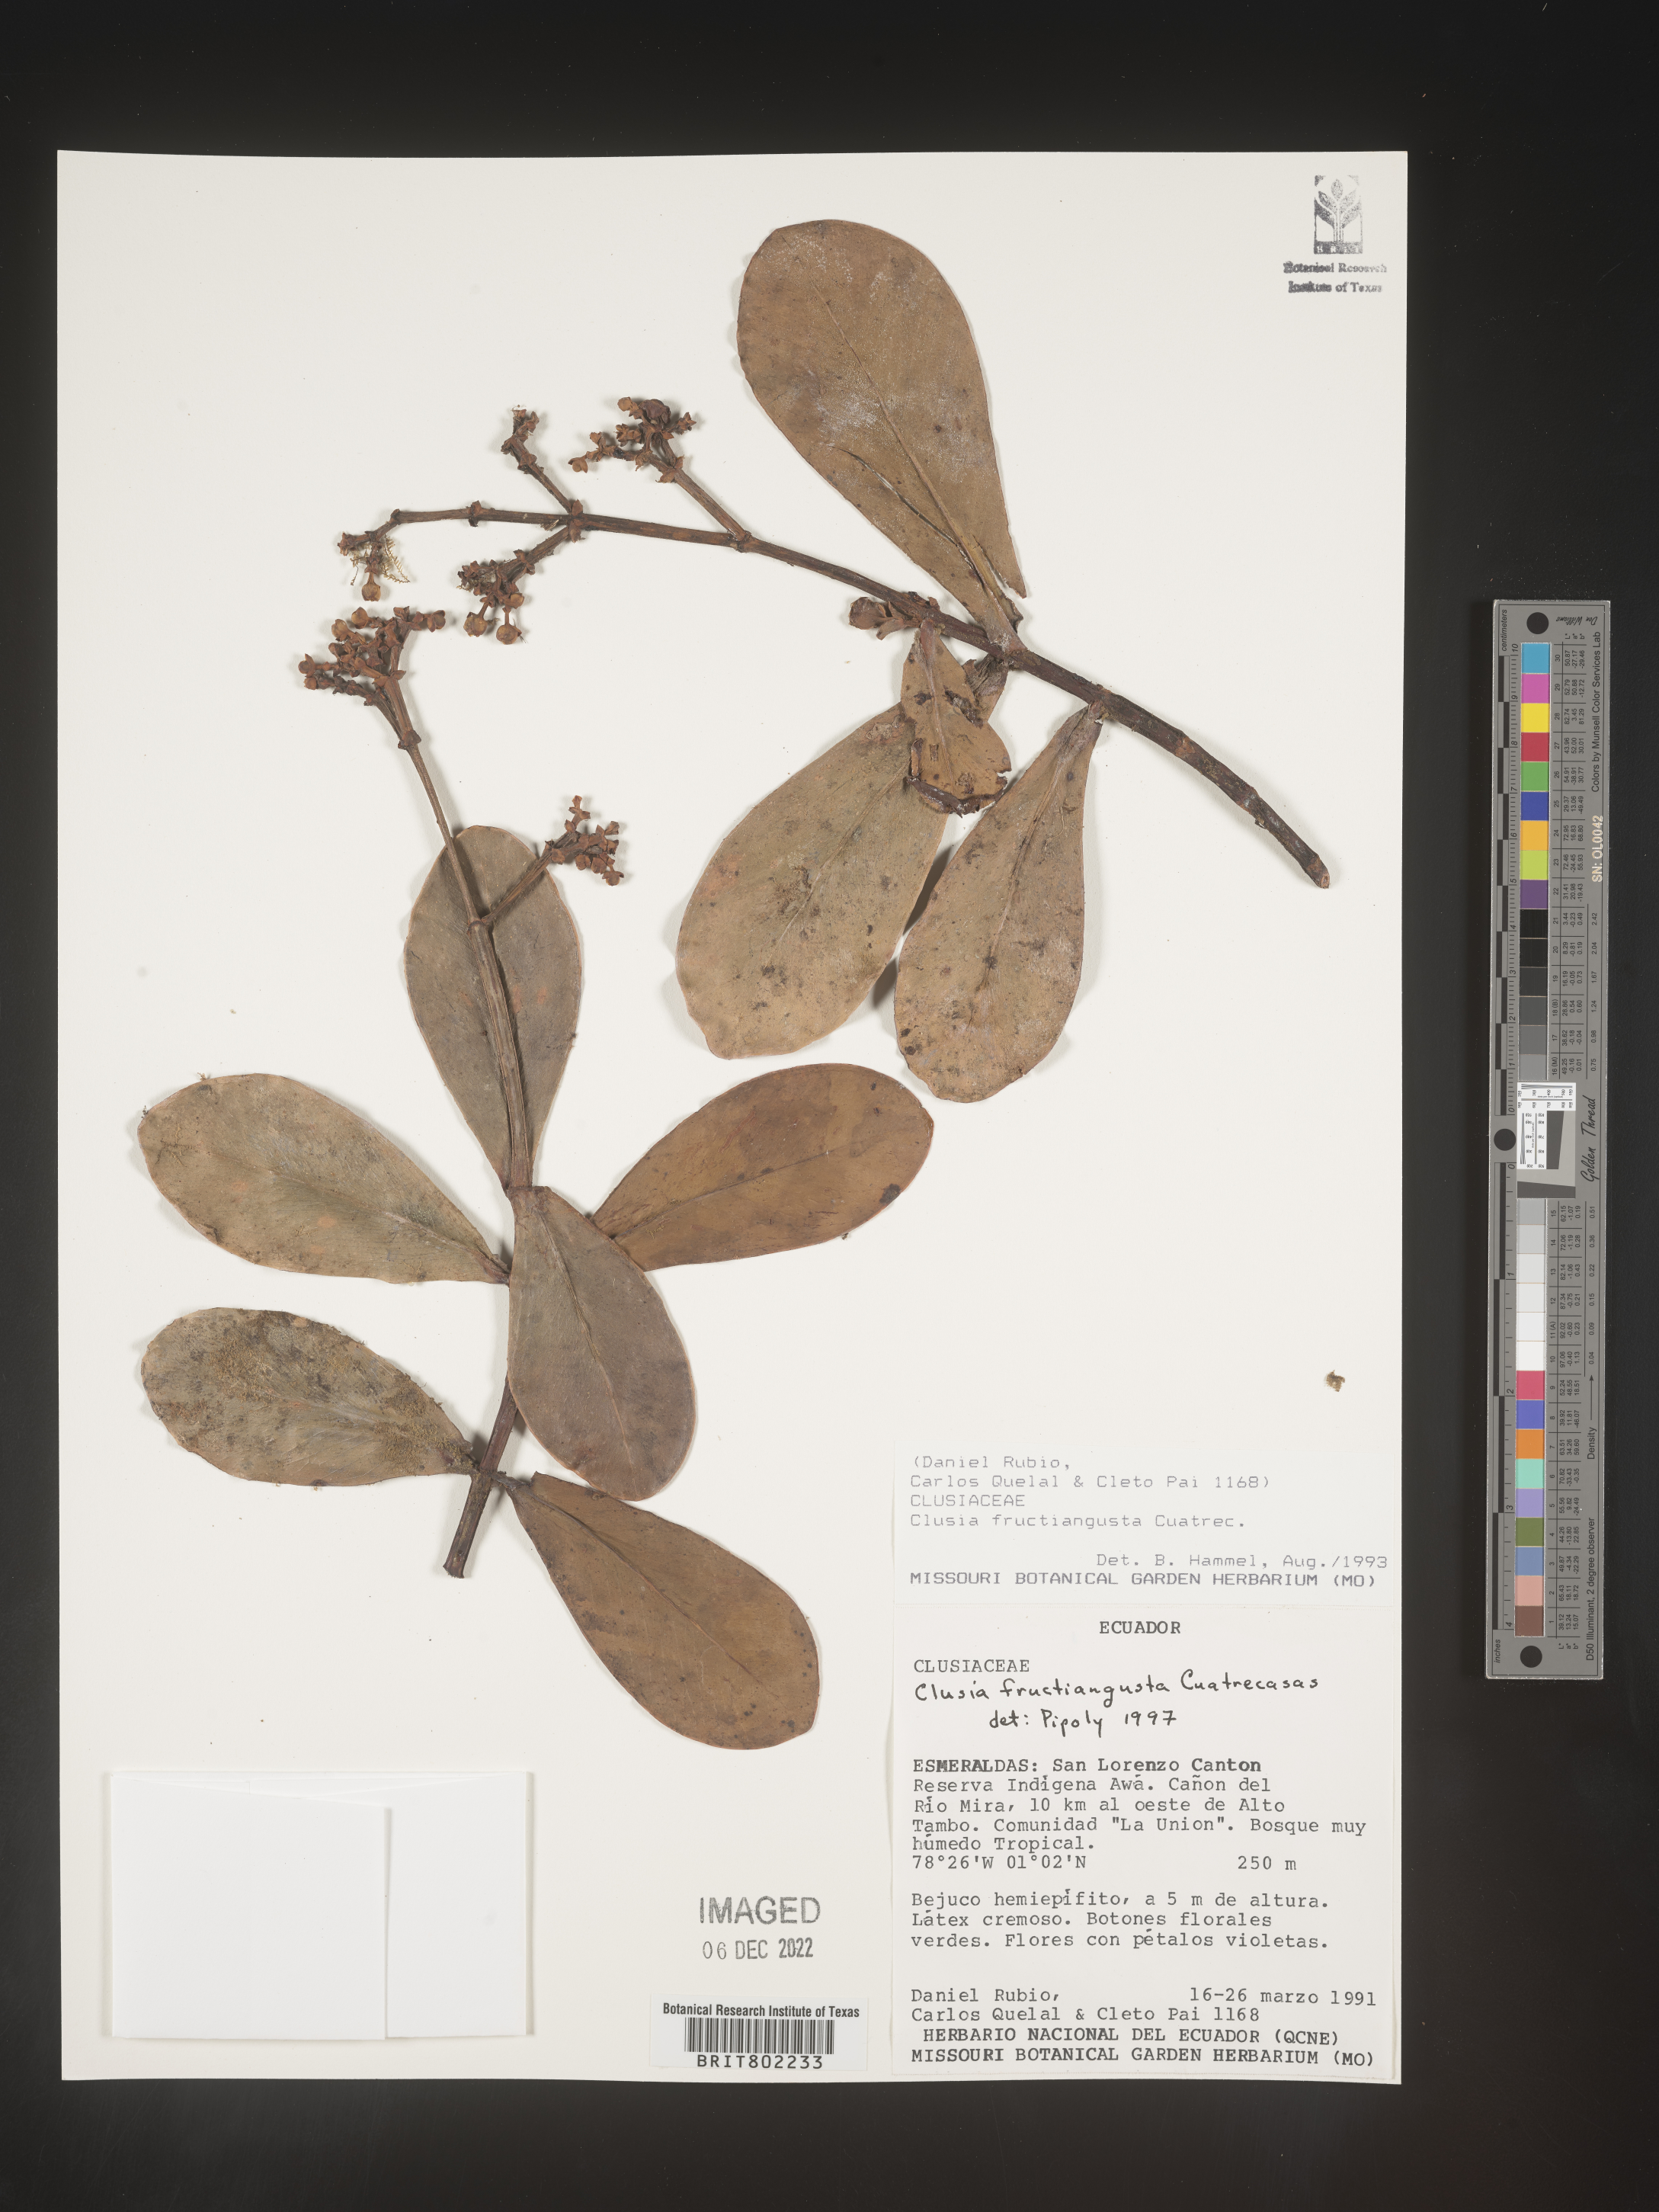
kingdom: Plantae
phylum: Tracheophyta
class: Magnoliopsida
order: Malpighiales
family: Clusiaceae
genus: Clusia
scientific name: Clusia fructiangusta
